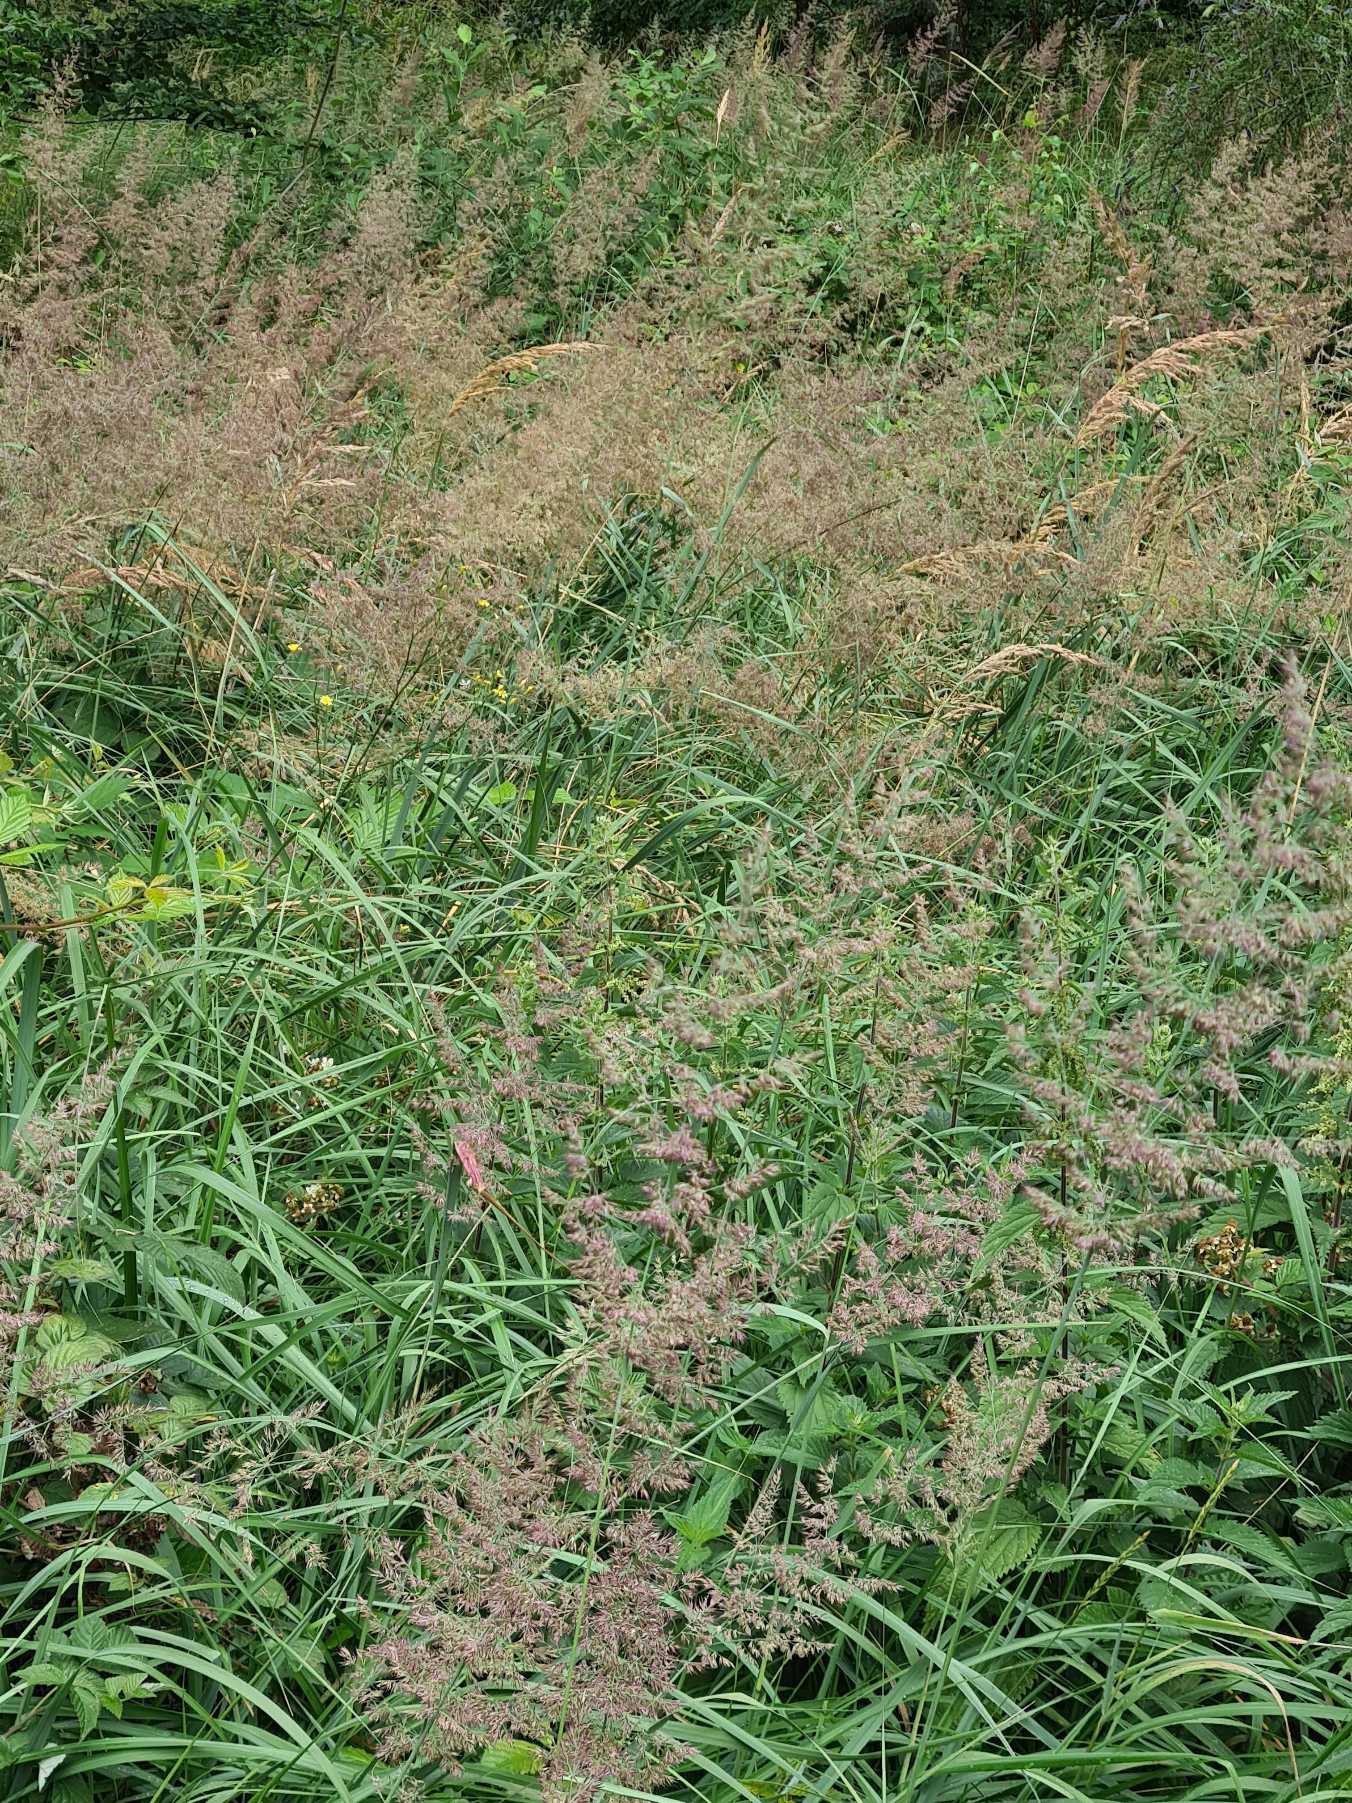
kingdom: Plantae
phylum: Tracheophyta
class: Liliopsida
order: Poales
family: Poaceae
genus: Calamagrostis
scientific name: Calamagrostis epigejos
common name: Bjerg-rørhvene
